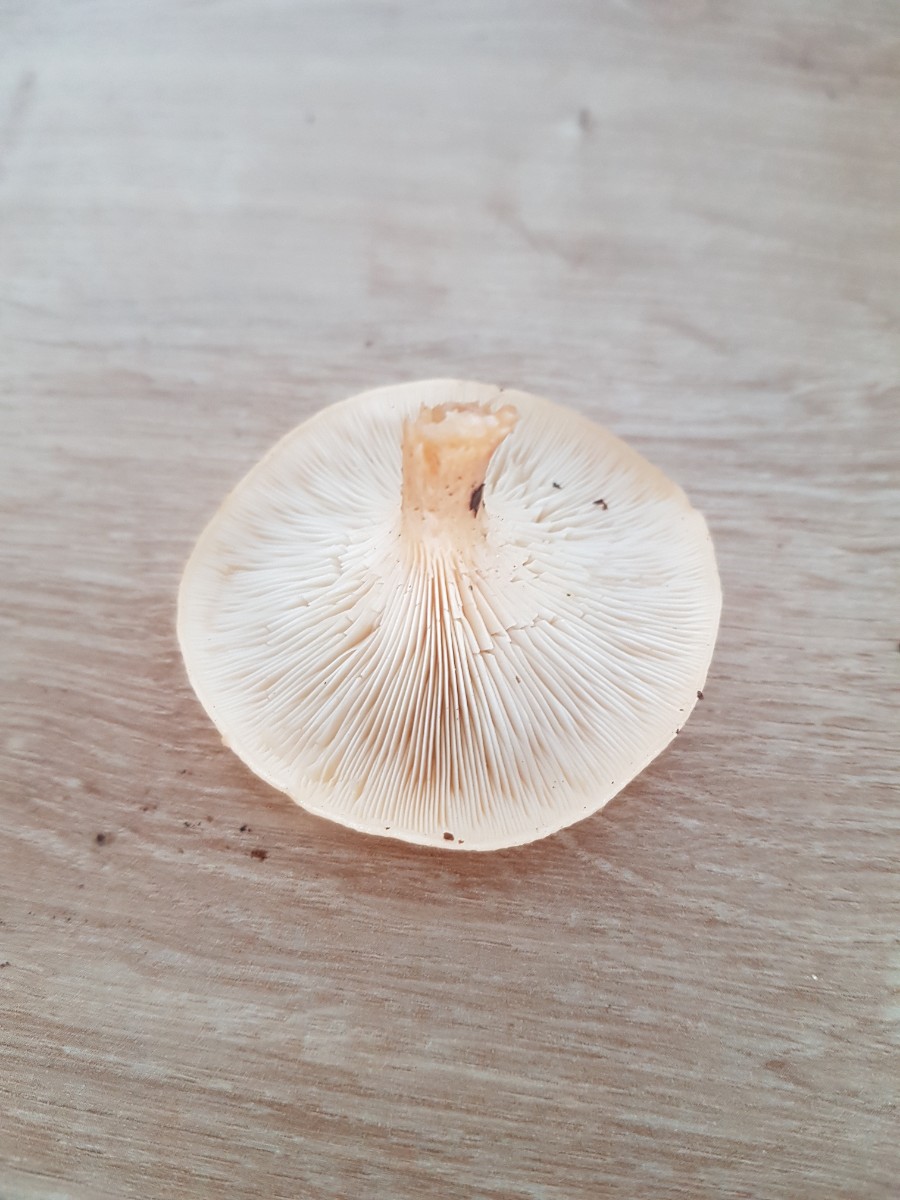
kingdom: Fungi
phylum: Basidiomycota
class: Agaricomycetes
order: Agaricales
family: Tricholomataceae
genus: Paralepista
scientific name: Paralepista flaccida
